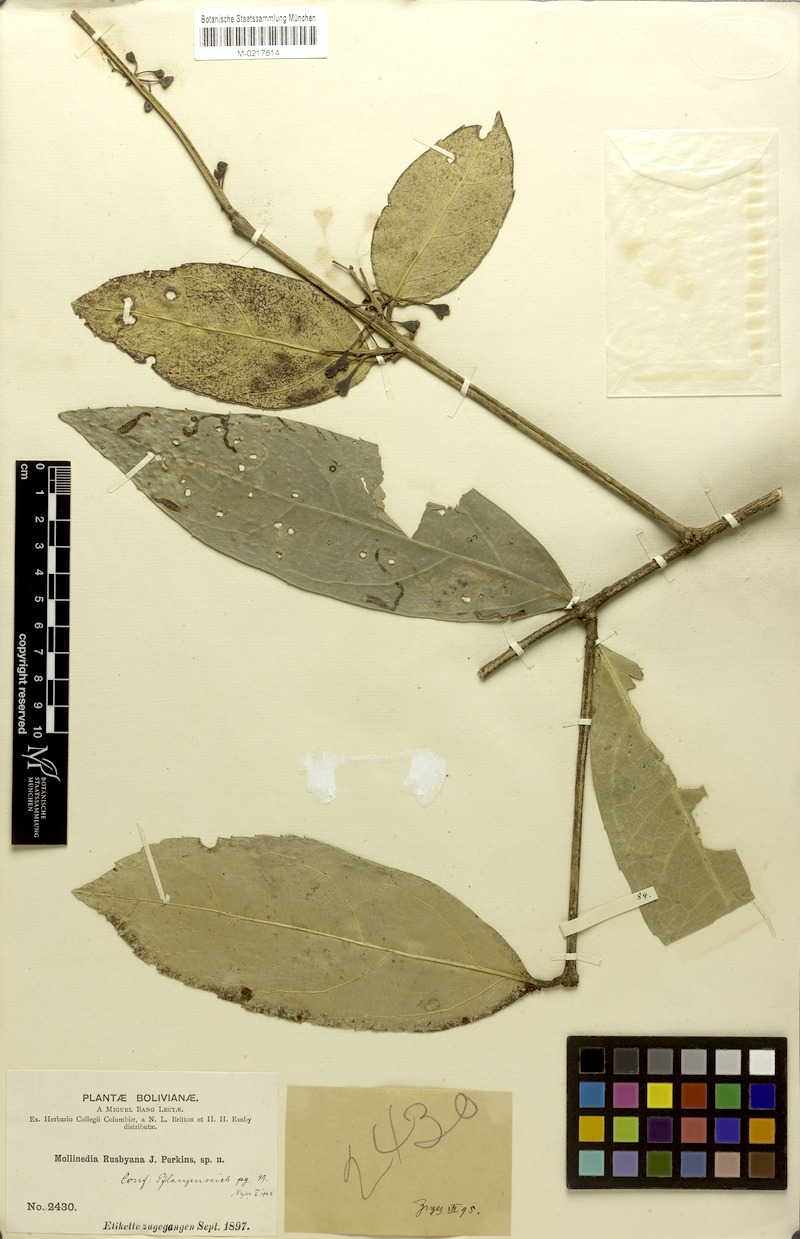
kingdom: Plantae
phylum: Tracheophyta
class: Magnoliopsida
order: Laurales
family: Monimiaceae
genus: Mollinedia
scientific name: Mollinedia ovata
